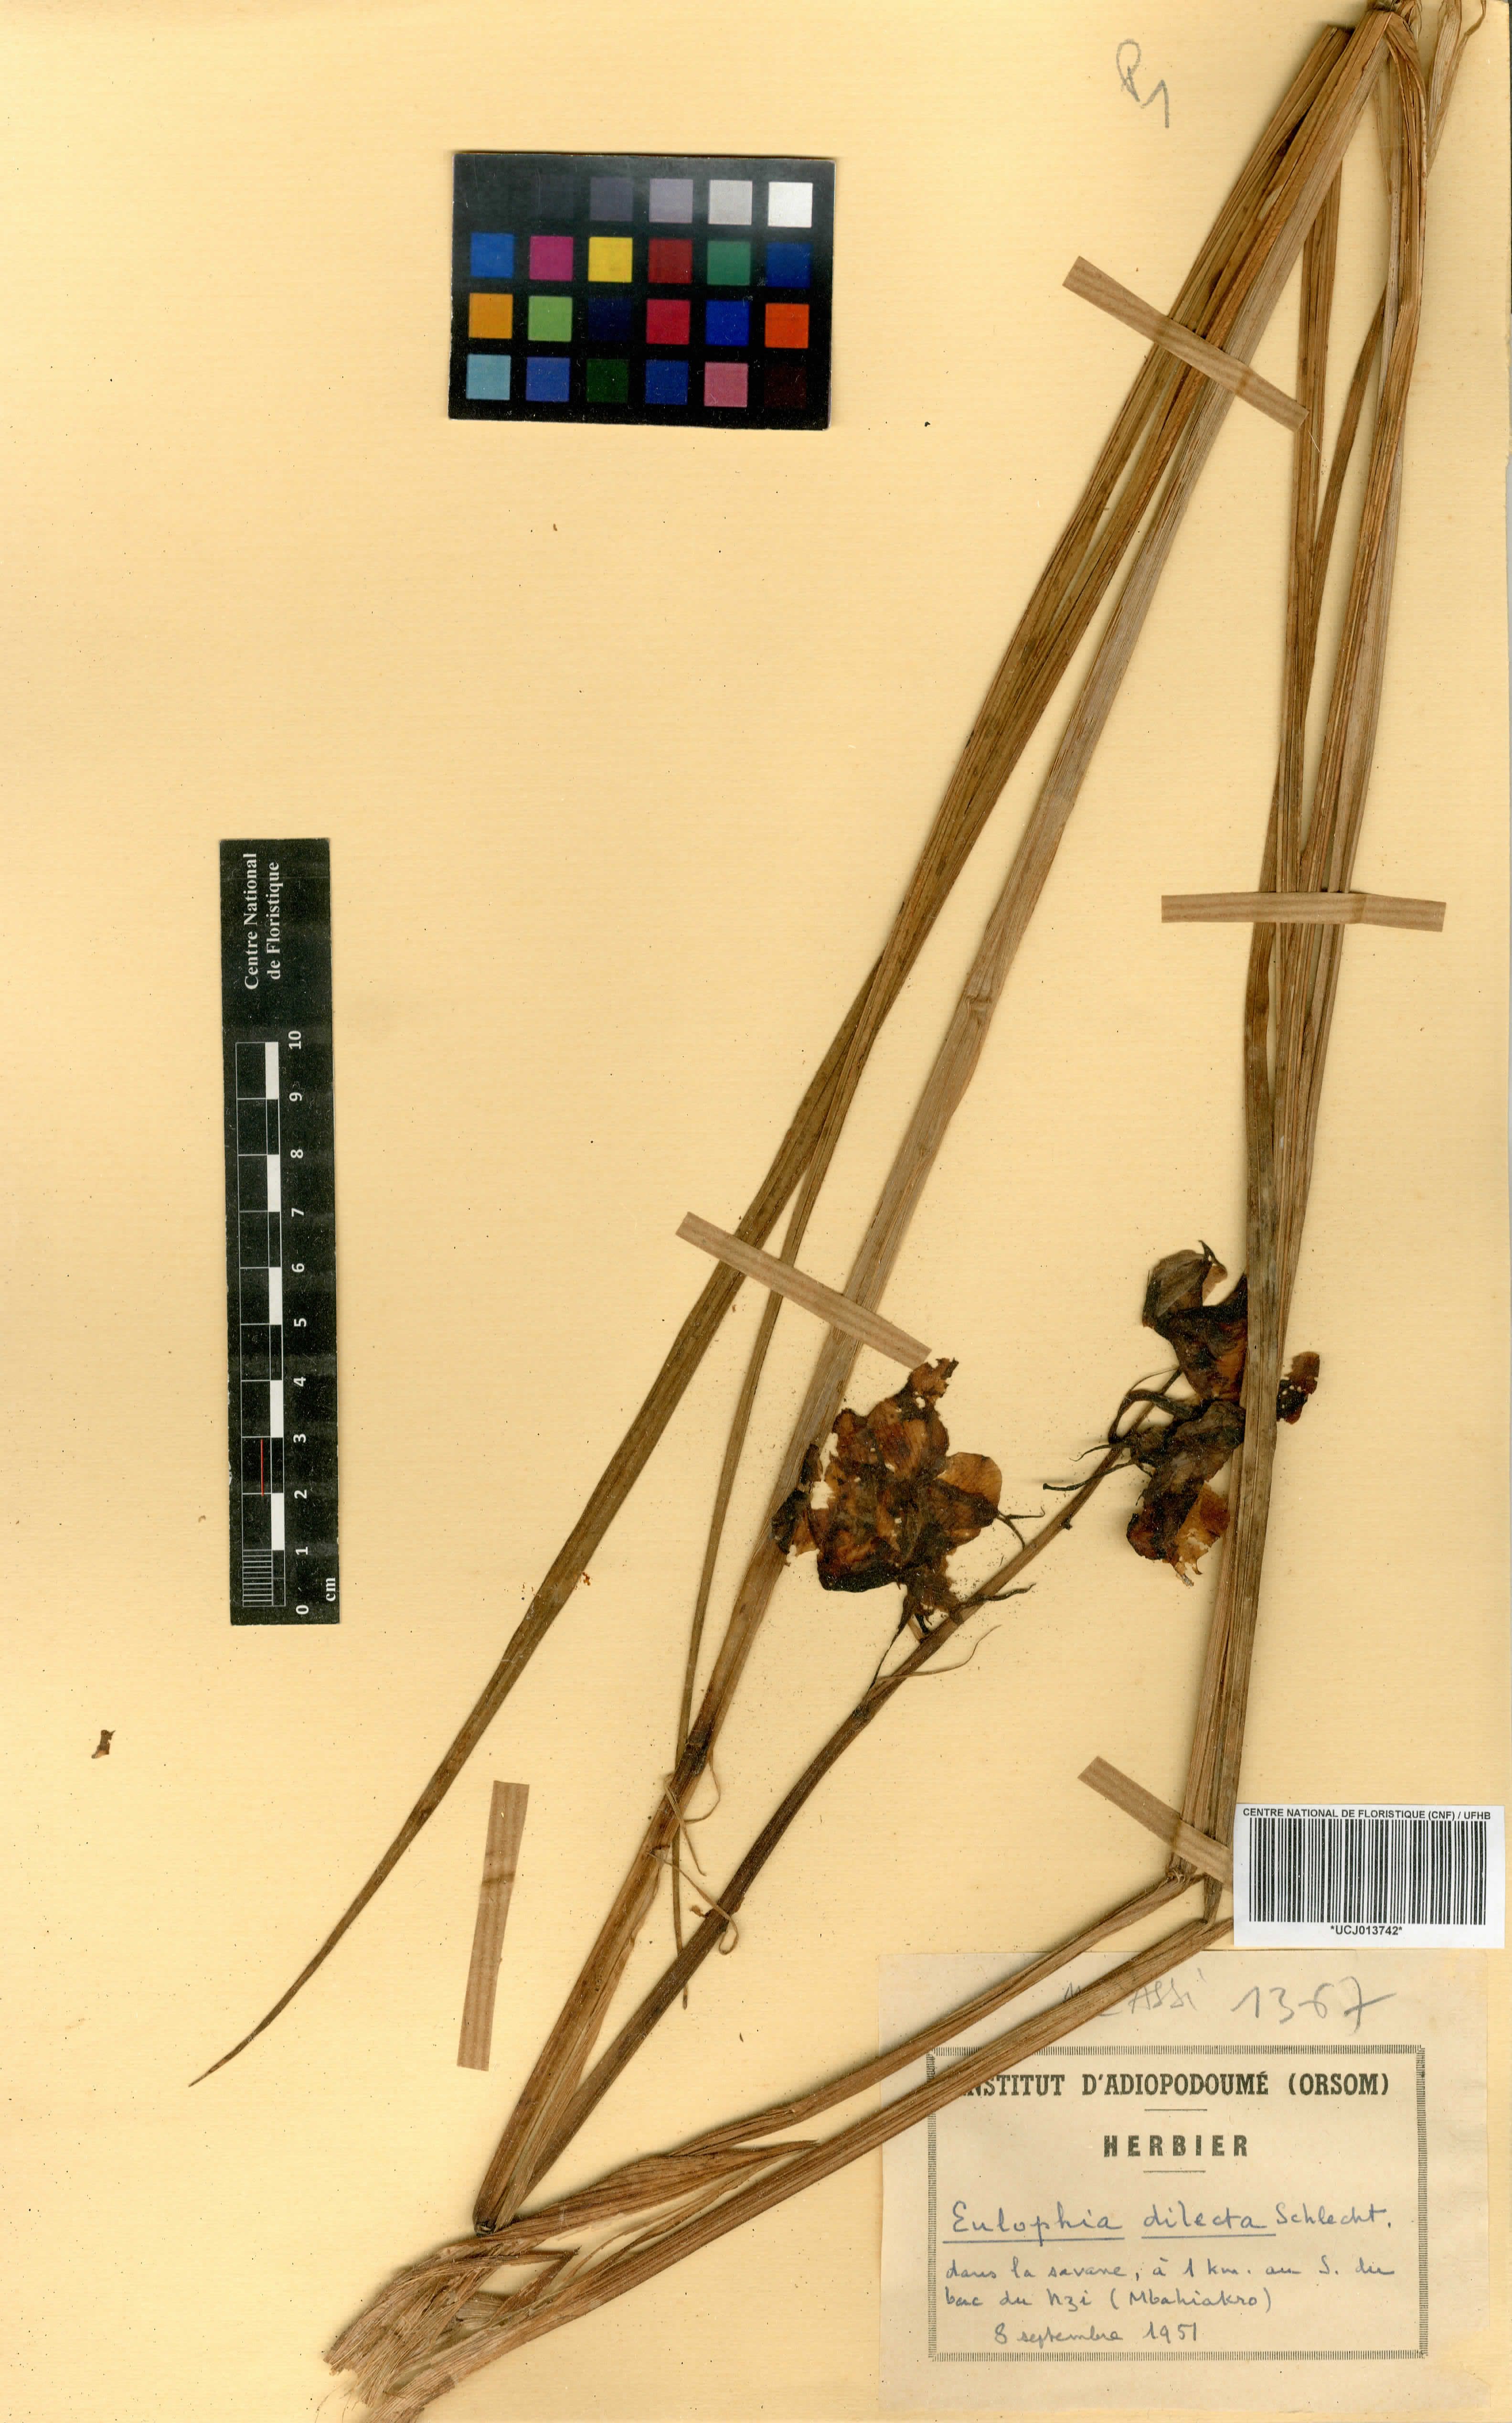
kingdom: Plantae
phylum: Tracheophyta
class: Liliopsida
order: Asparagales
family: Orchidaceae
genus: Eulophia
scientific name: Eulophia cucullata
